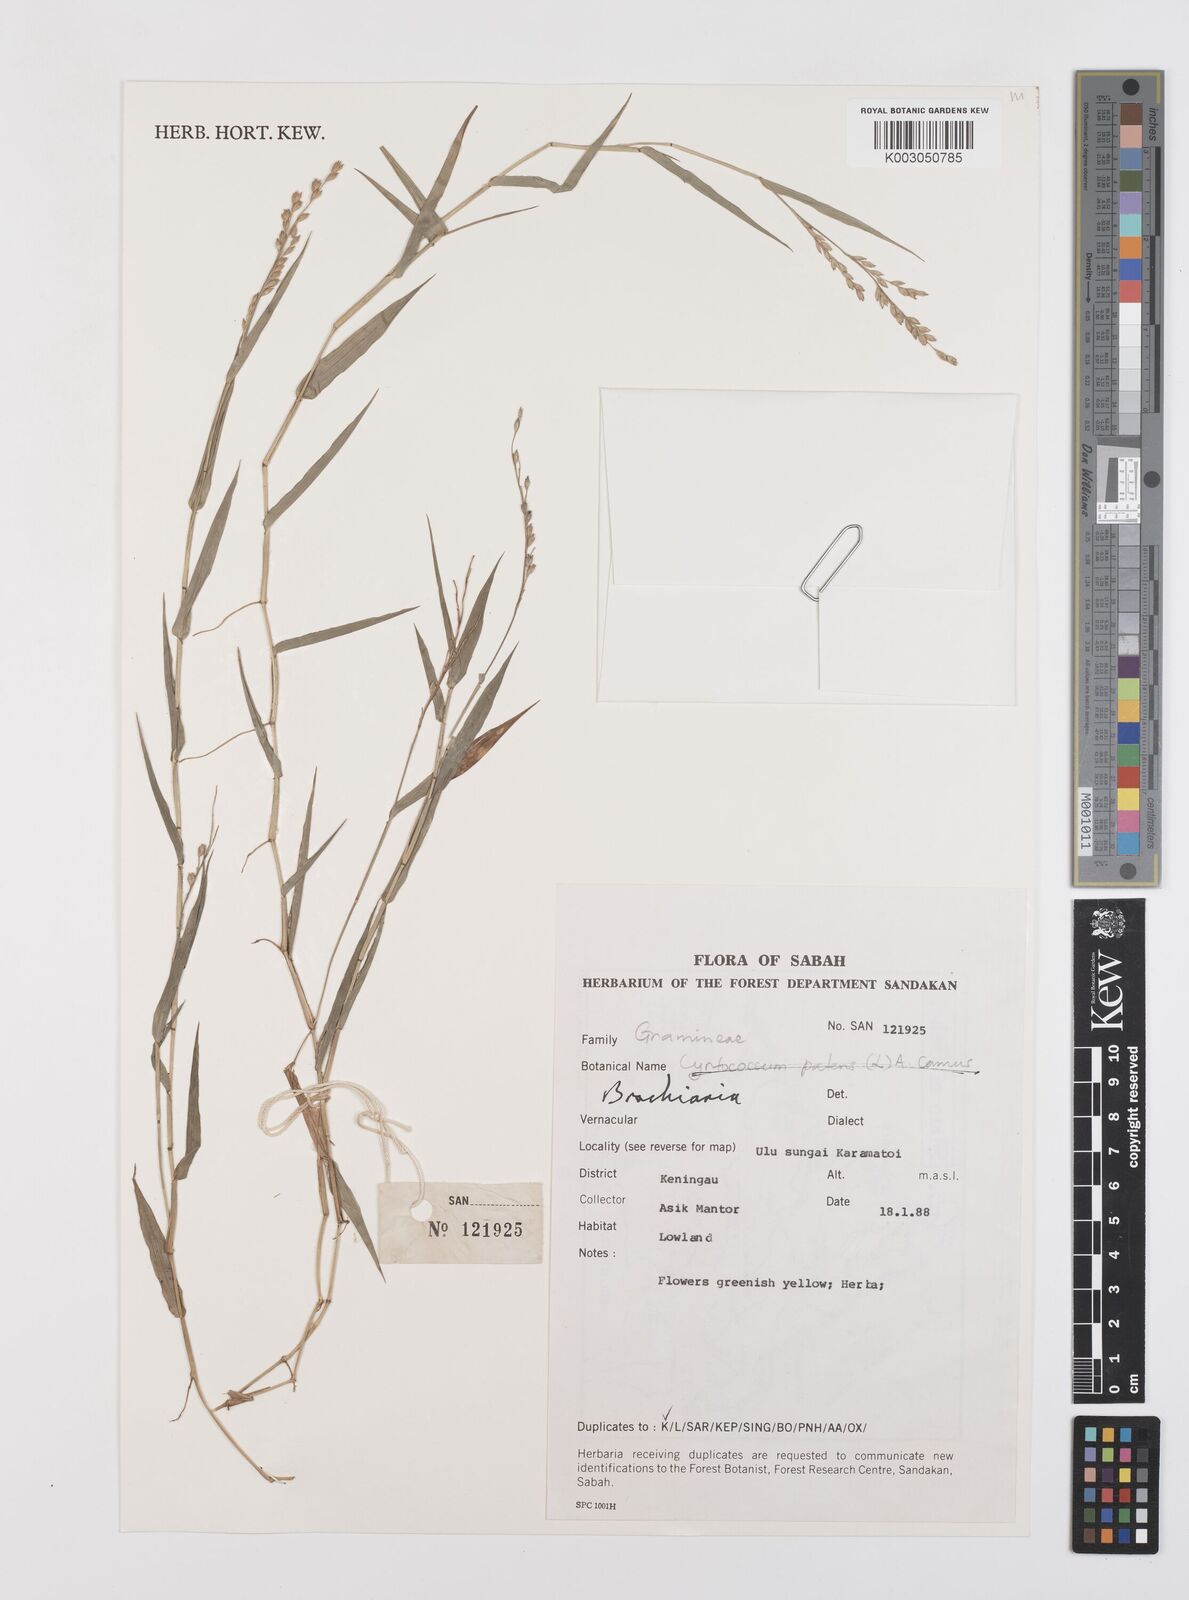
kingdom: Plantae
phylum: Tracheophyta
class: Liliopsida
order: Poales
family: Poaceae
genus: Brachiaria
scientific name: Brachiaria
